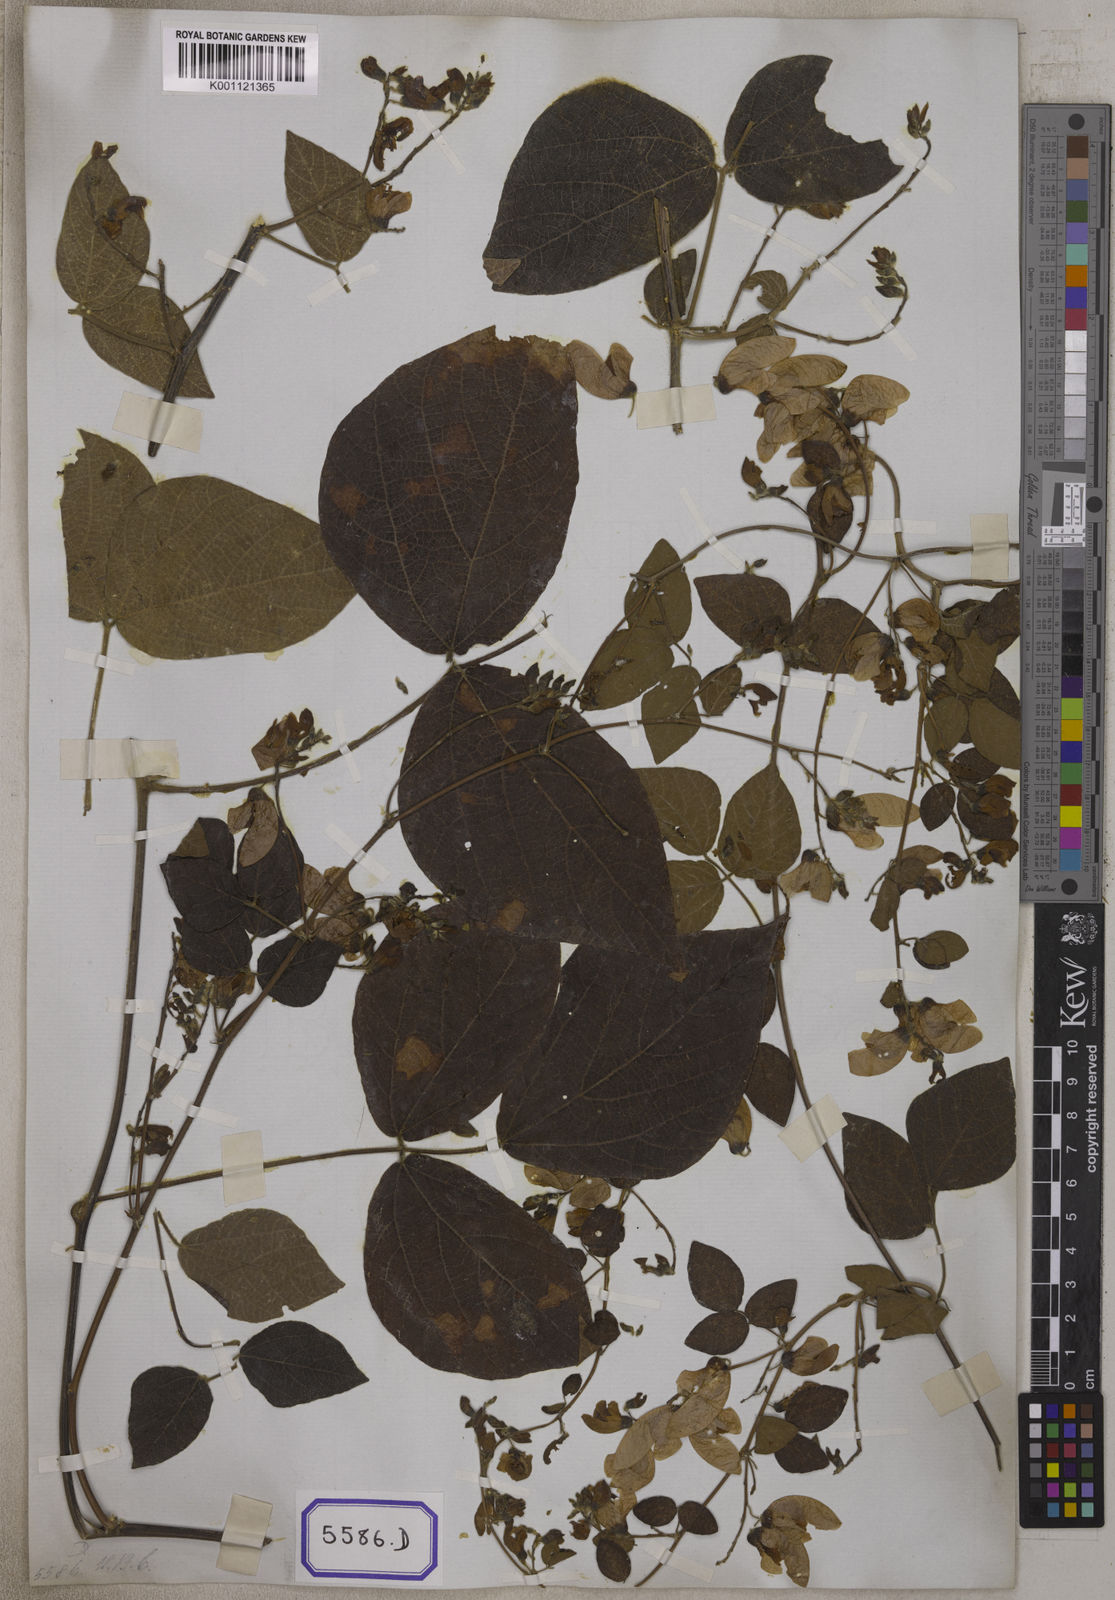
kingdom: Plantae
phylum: Tracheophyta
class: Magnoliopsida
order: Fabales
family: Fabaceae
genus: Paracalyx
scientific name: Paracalyx scariosus
